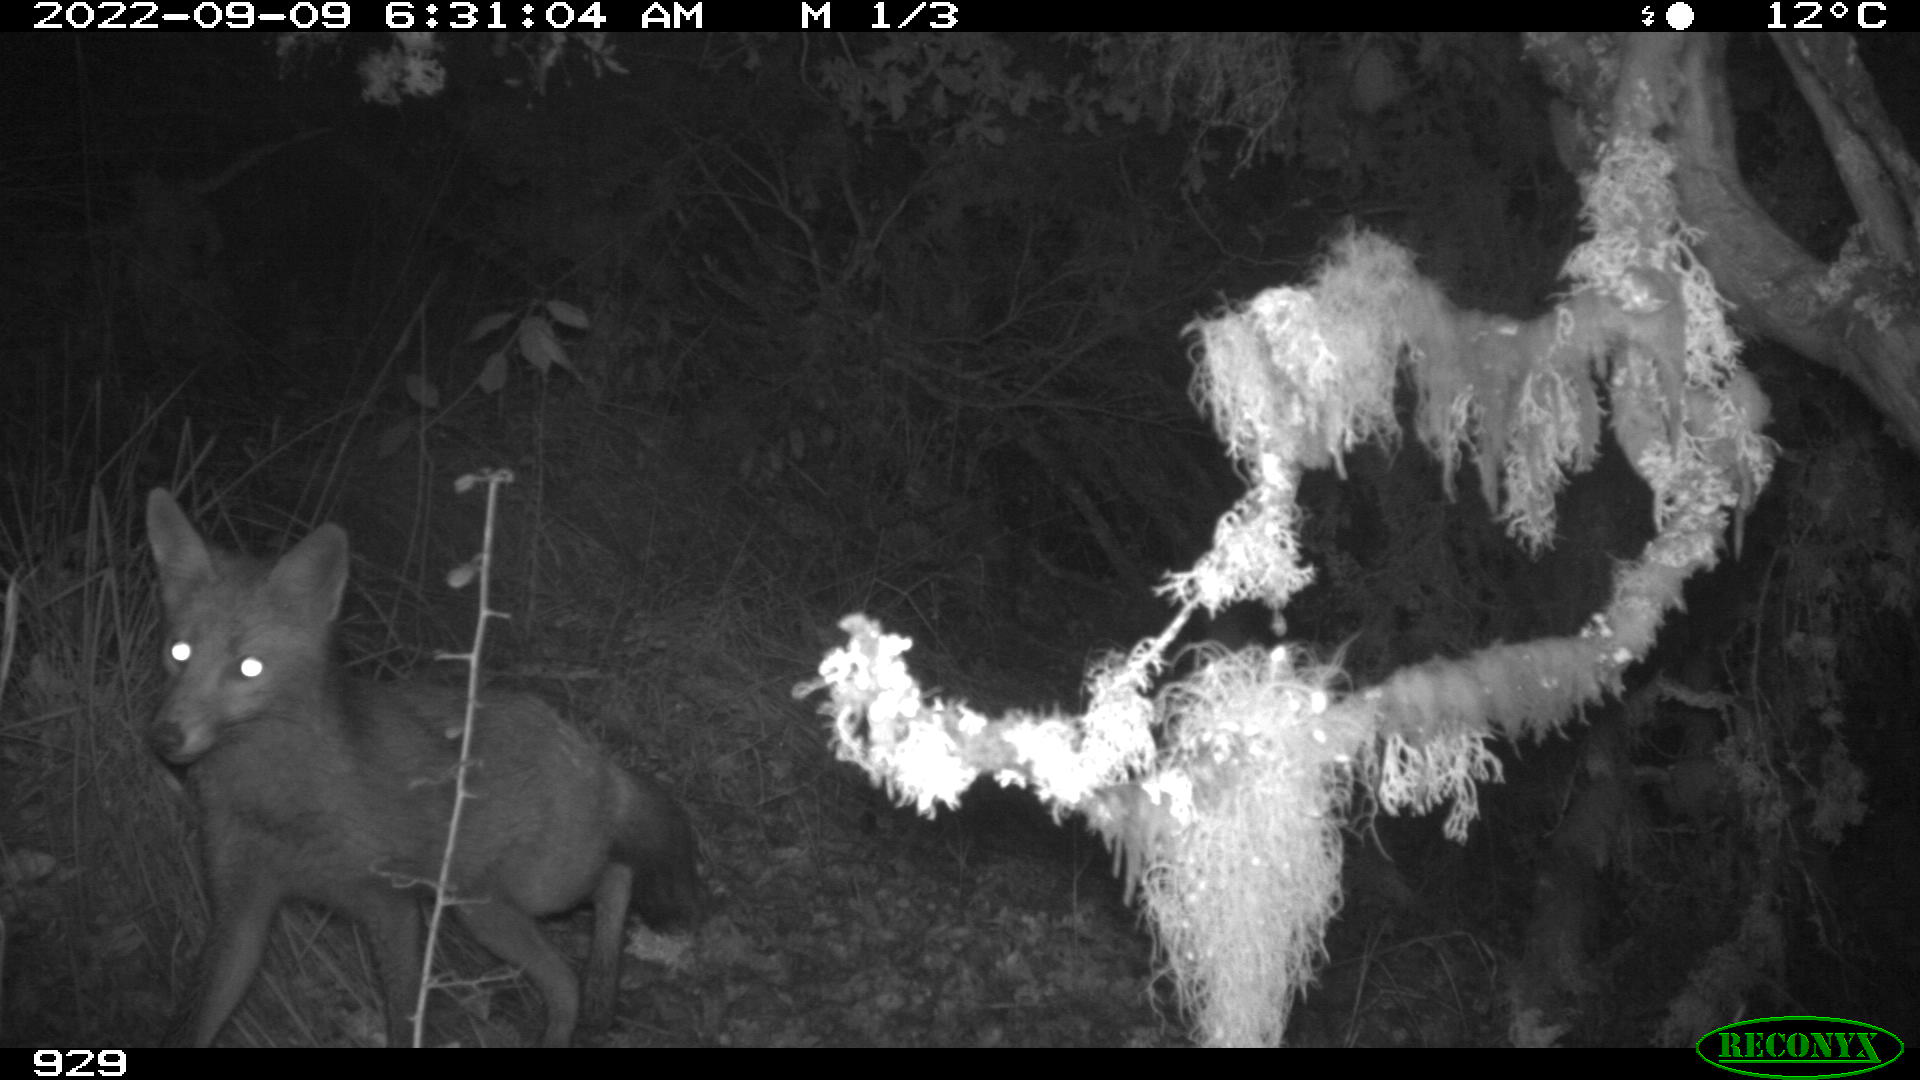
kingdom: Animalia
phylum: Chordata
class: Mammalia
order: Carnivora
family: Canidae
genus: Vulpes
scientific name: Vulpes vulpes
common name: Red fox
